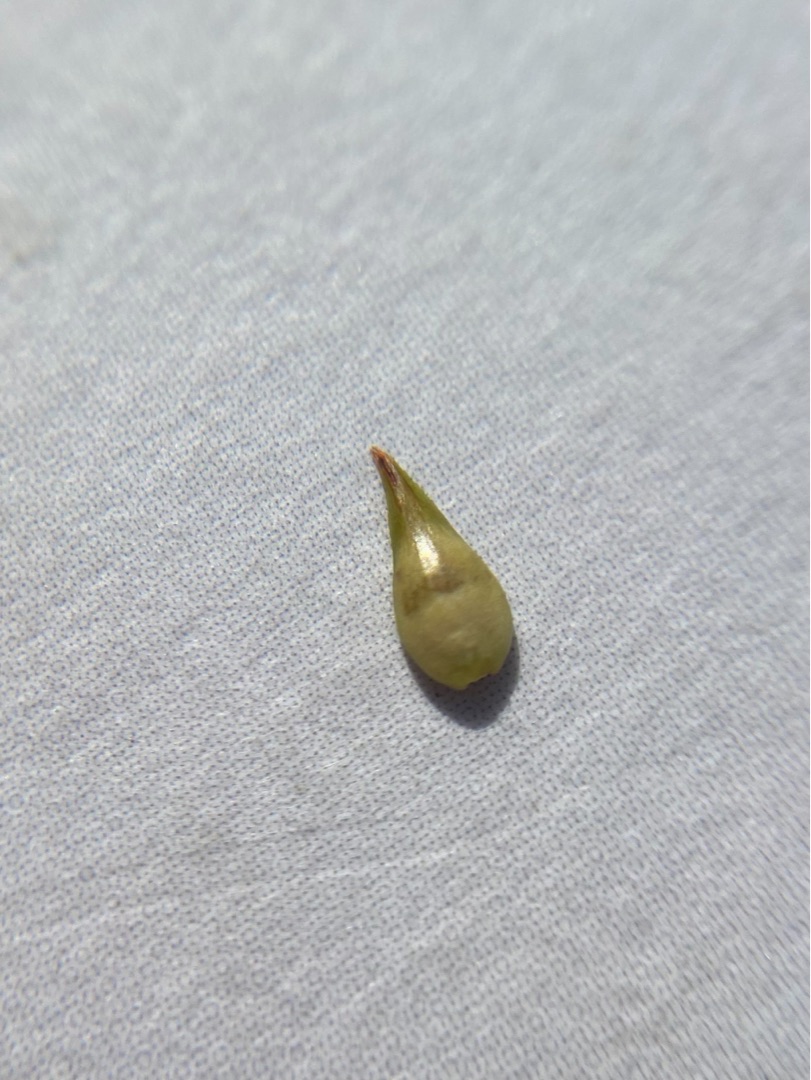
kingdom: Plantae
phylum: Tracheophyta
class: Liliopsida
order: Poales
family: Cyperaceae
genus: Carex
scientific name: Carex spicata
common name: Spidskapslet star
